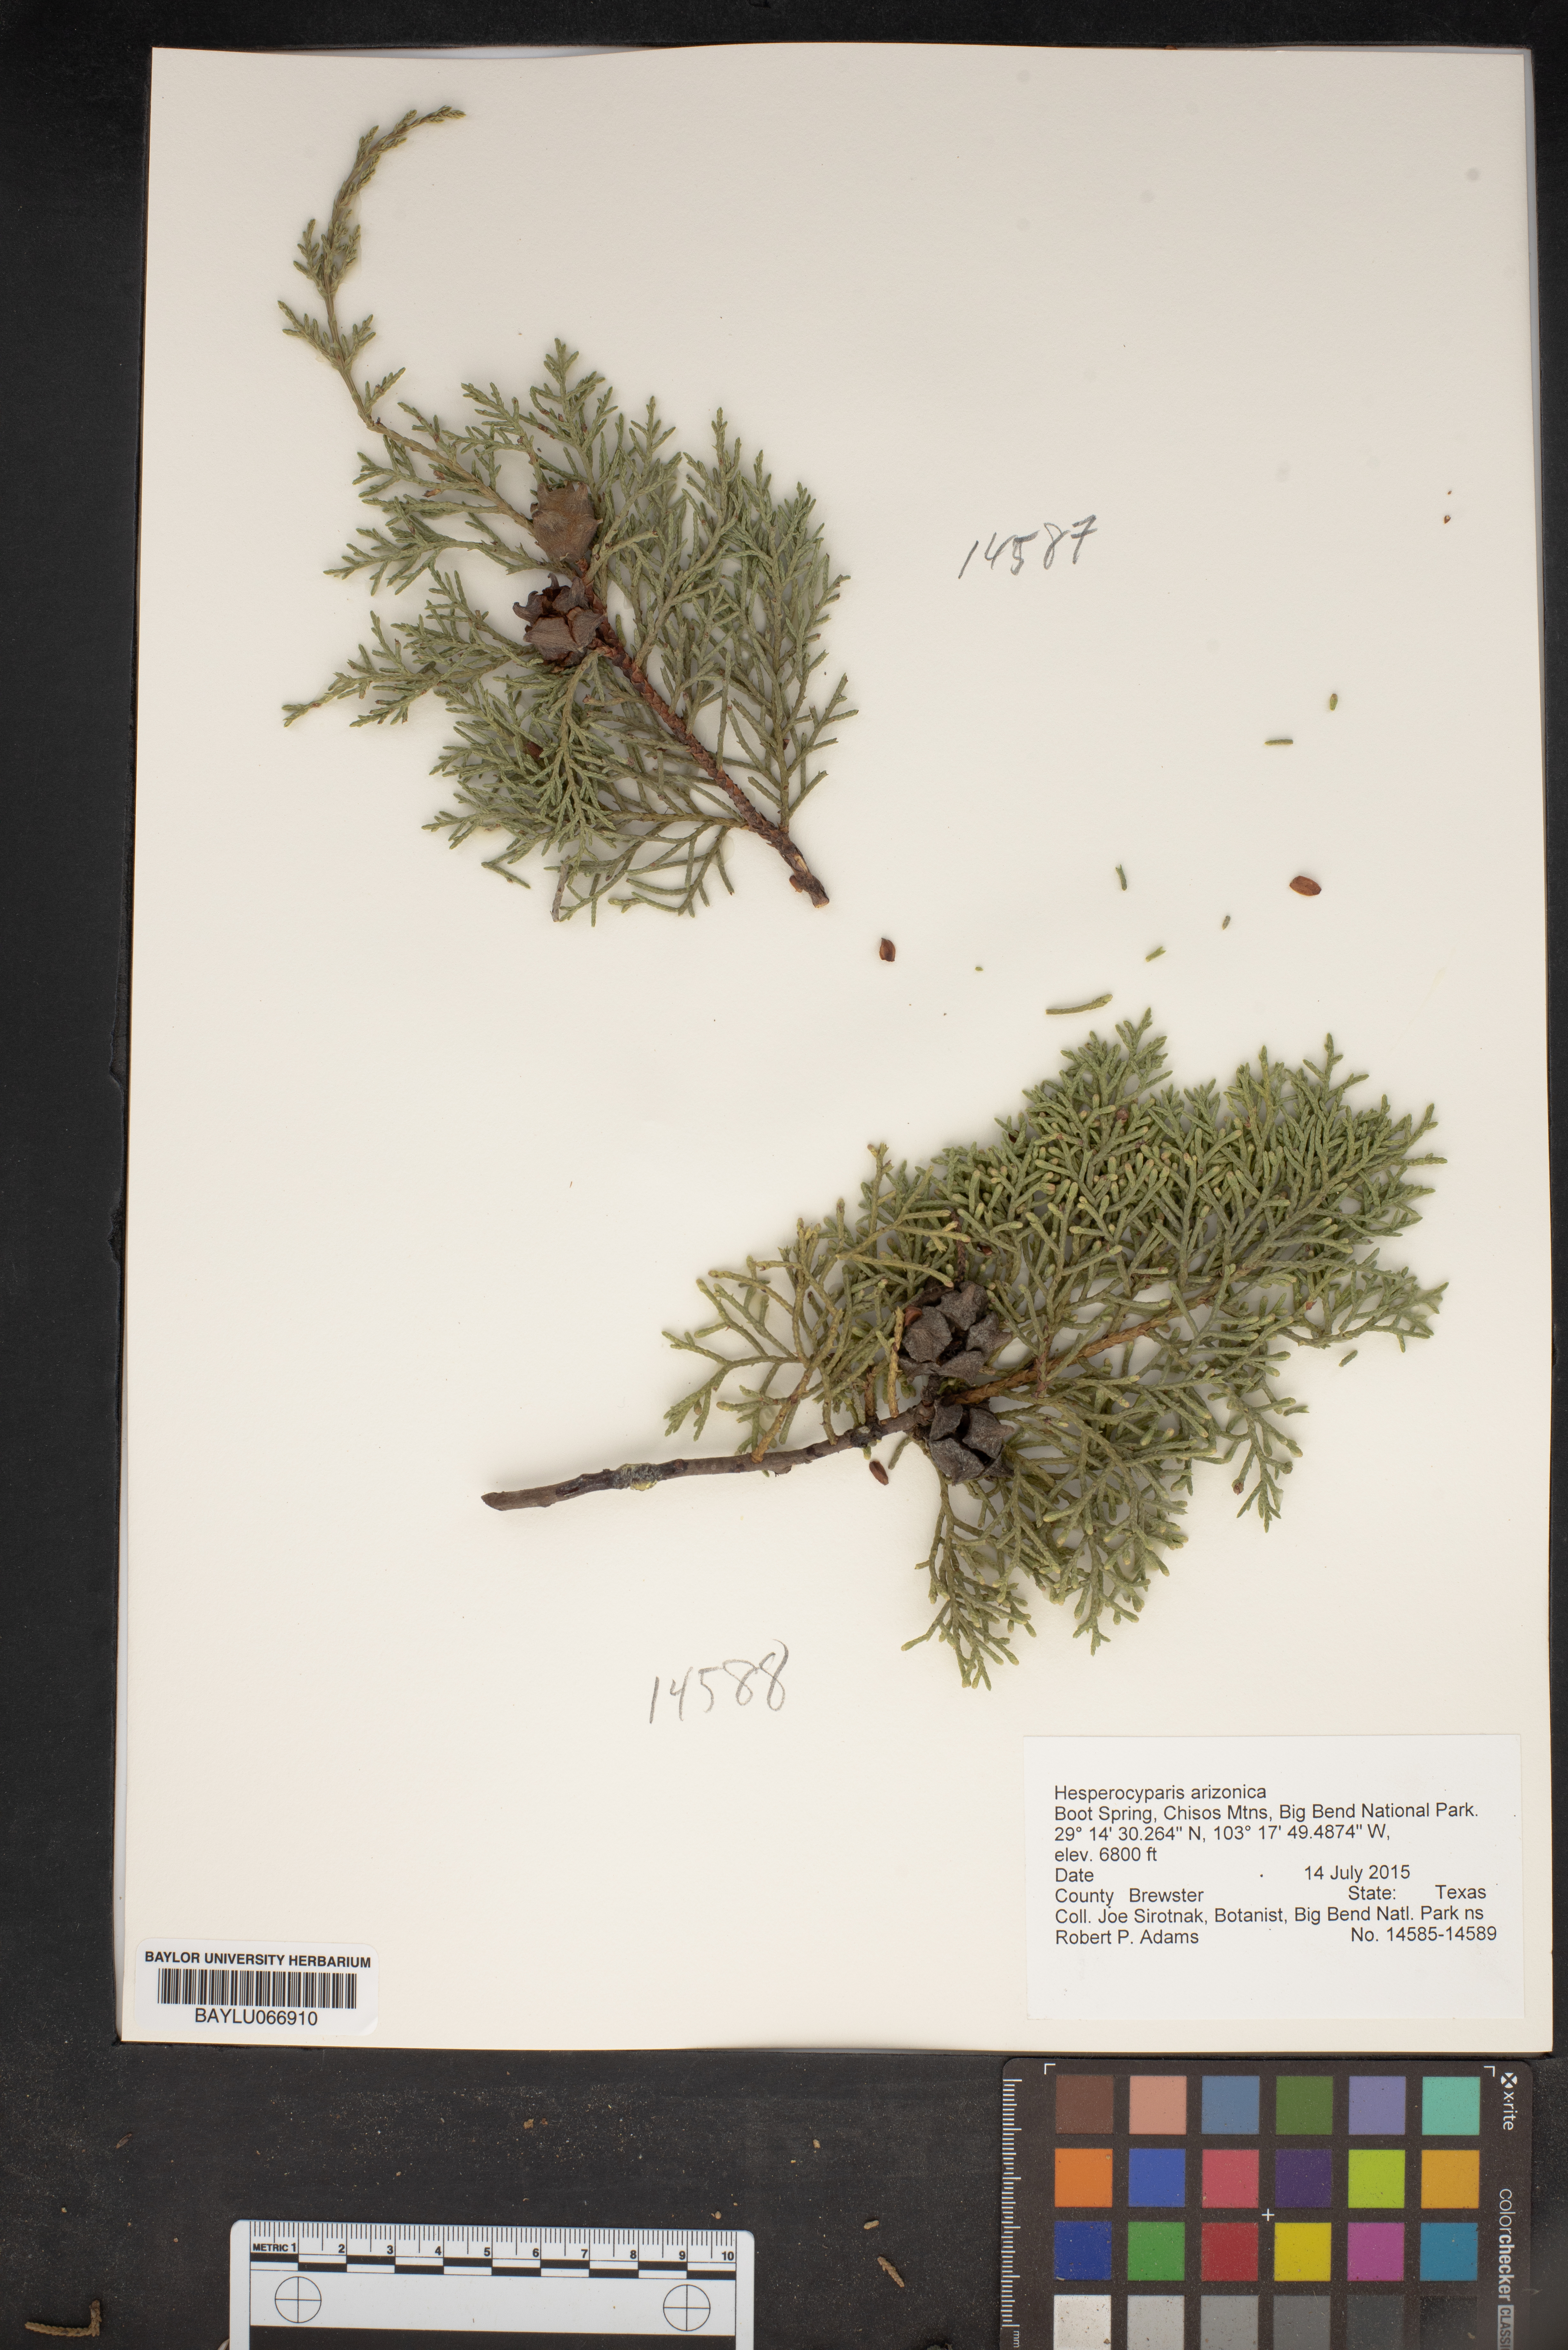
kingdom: Plantae
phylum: Tracheophyta
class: Pinopsida
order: Pinales
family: Cupressaceae
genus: Cupressus
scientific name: Cupressus arizonica
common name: Arizona cypress
